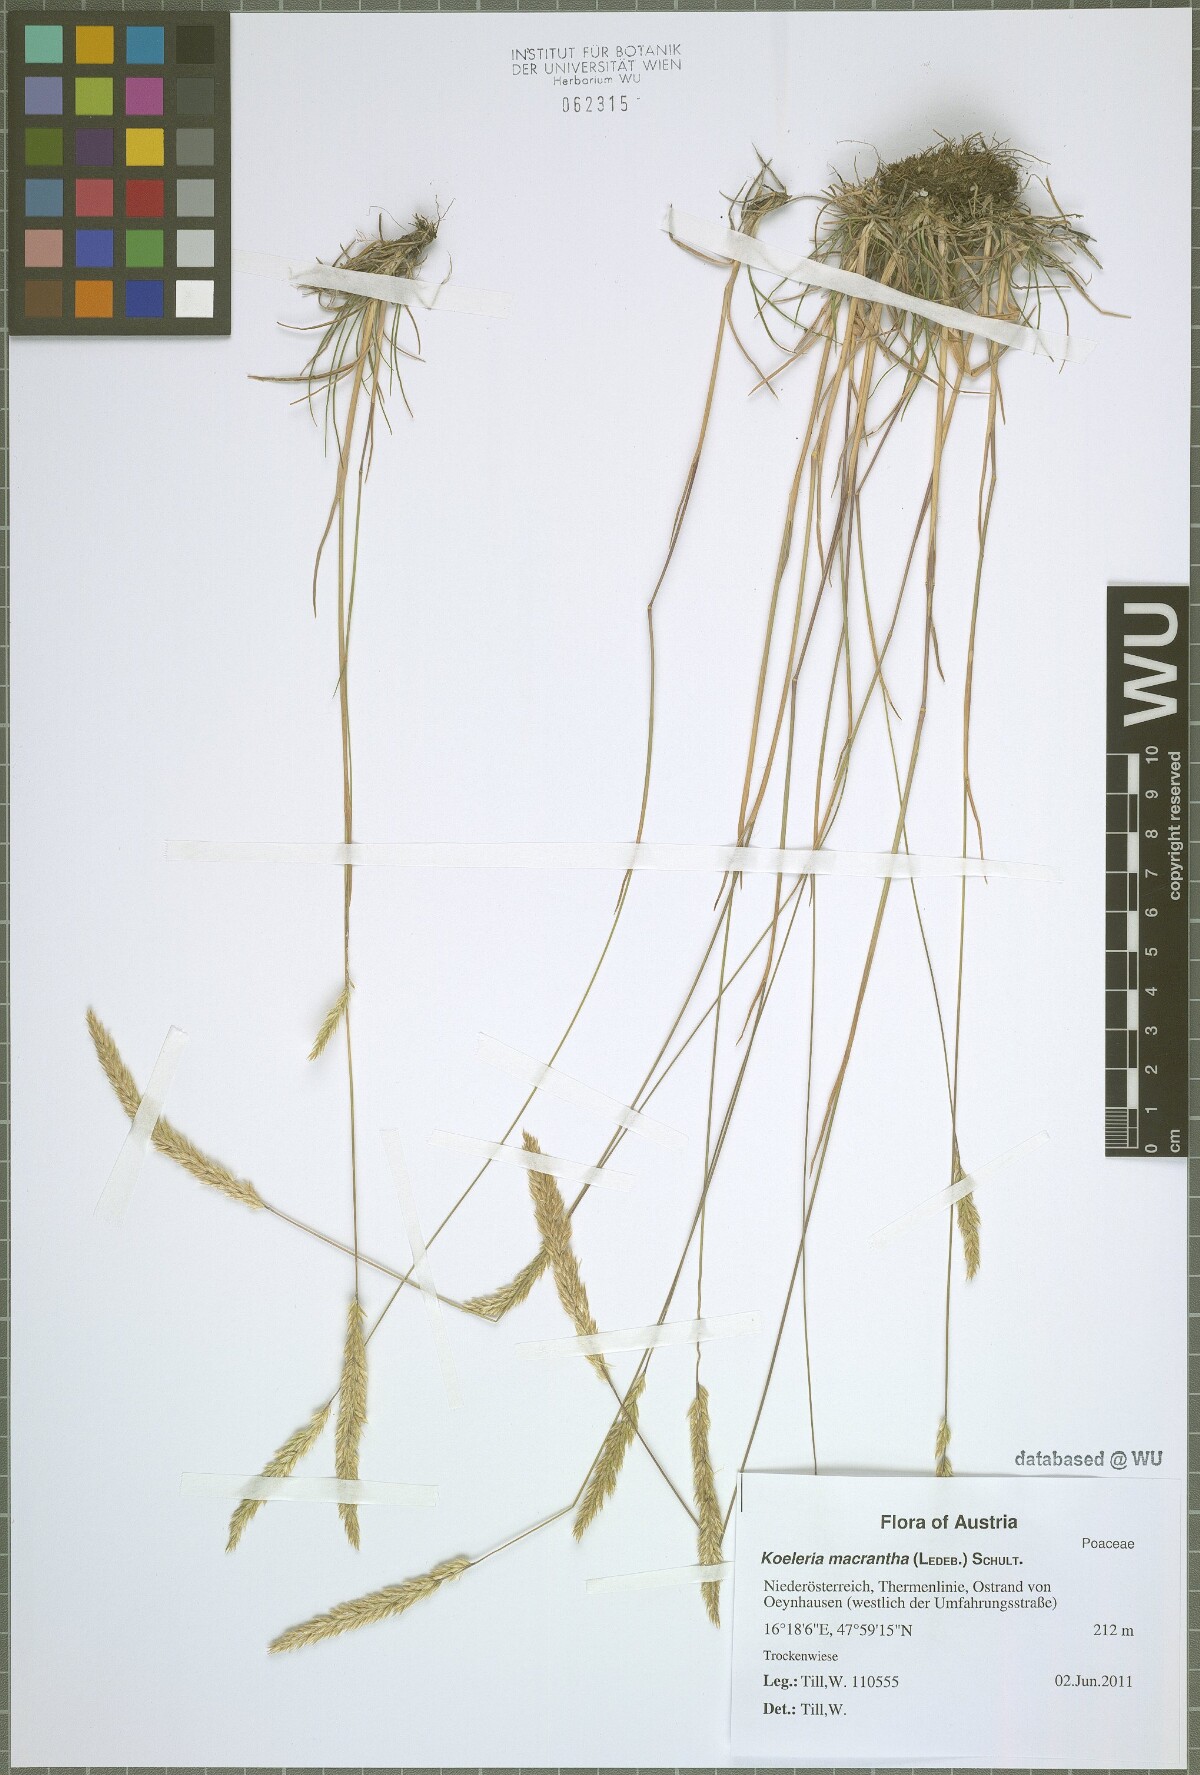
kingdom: Plantae
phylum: Tracheophyta
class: Liliopsida
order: Poales
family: Poaceae
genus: Koeleria
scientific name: Koeleria macrantha
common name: Crested hair-grass
